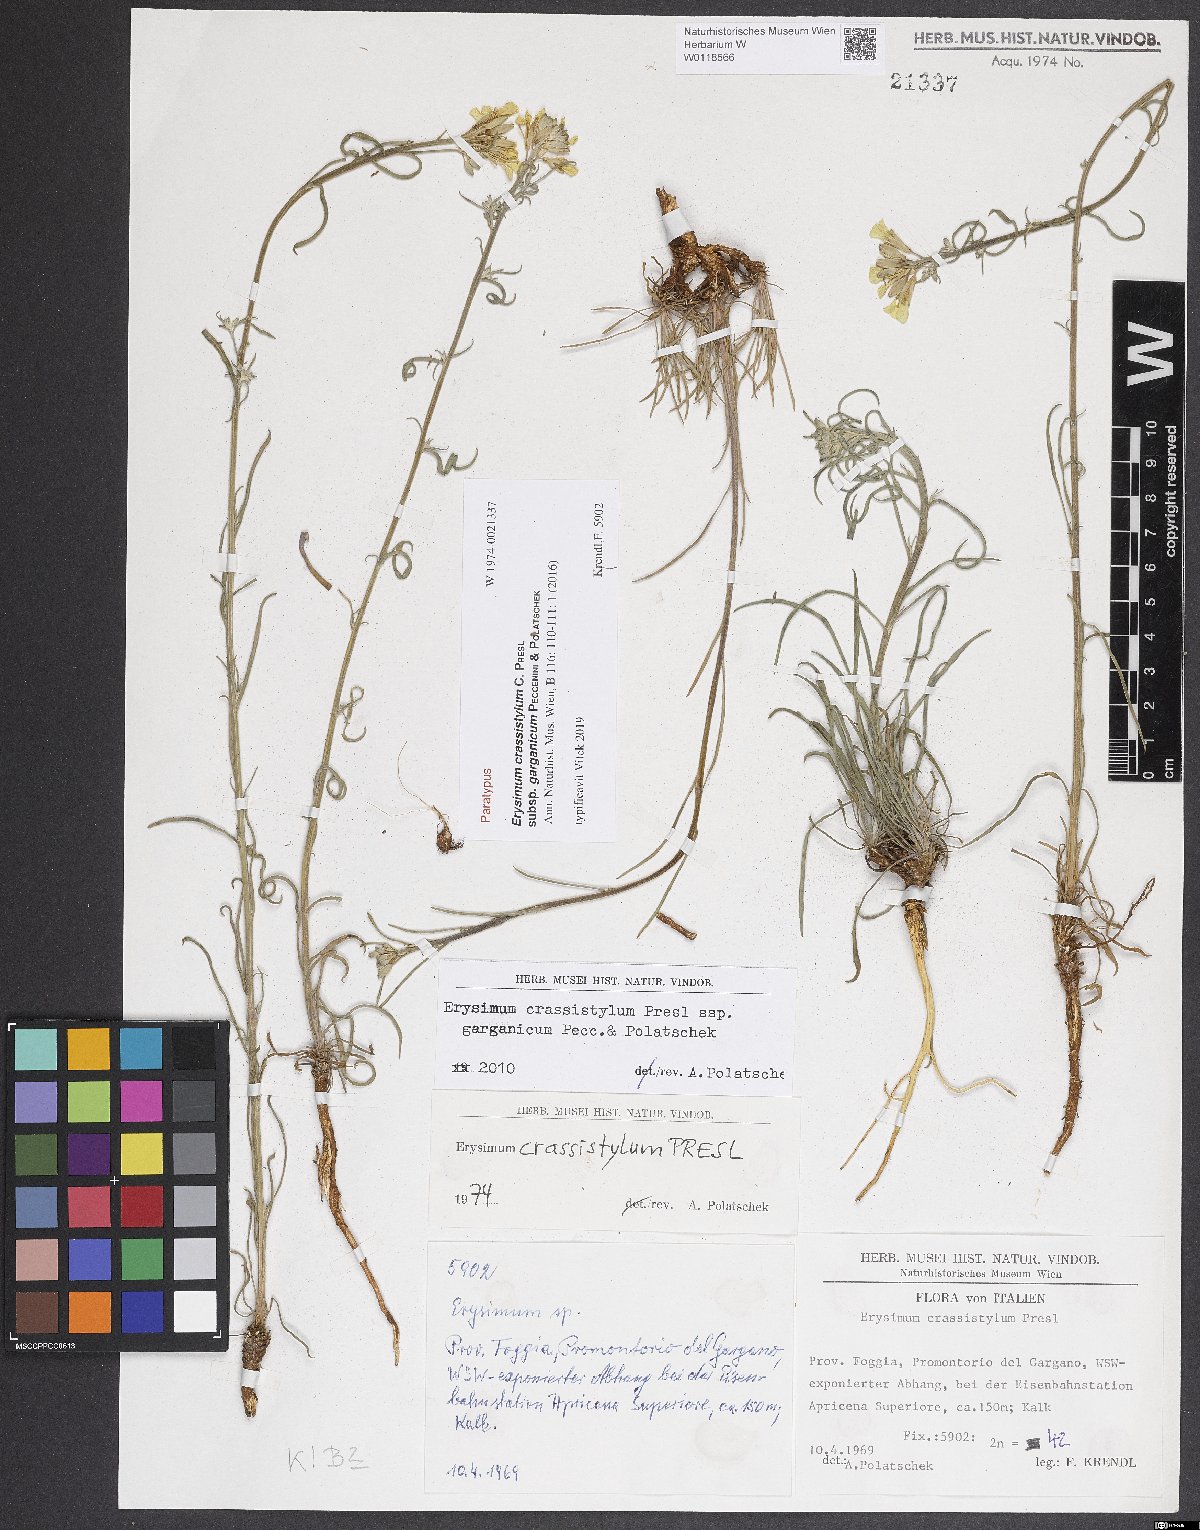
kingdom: Plantae
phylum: Tracheophyta
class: Magnoliopsida
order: Brassicales
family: Brassicaceae
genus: Erysimum
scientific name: Erysimum crassistylum
